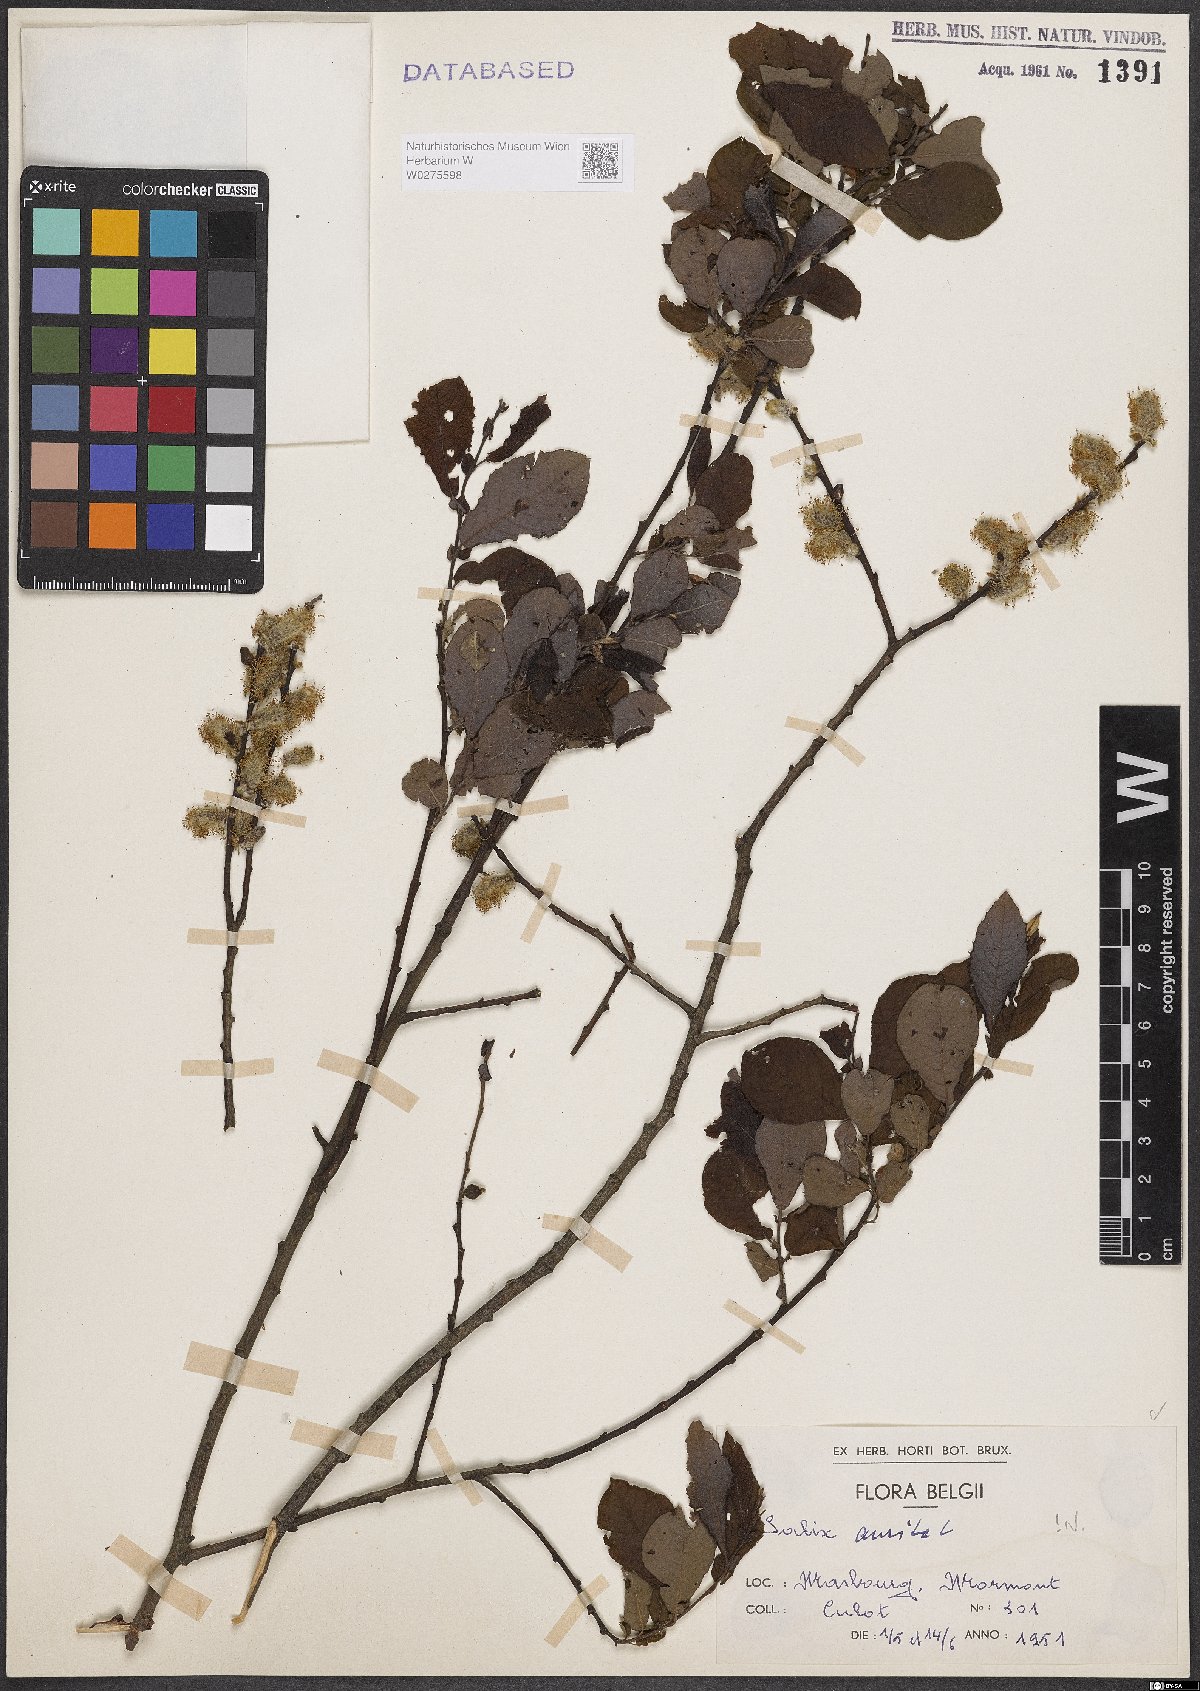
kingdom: Plantae
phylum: Tracheophyta
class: Magnoliopsida
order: Malpighiales
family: Salicaceae
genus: Salix
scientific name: Salix aurita
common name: Eared willow
